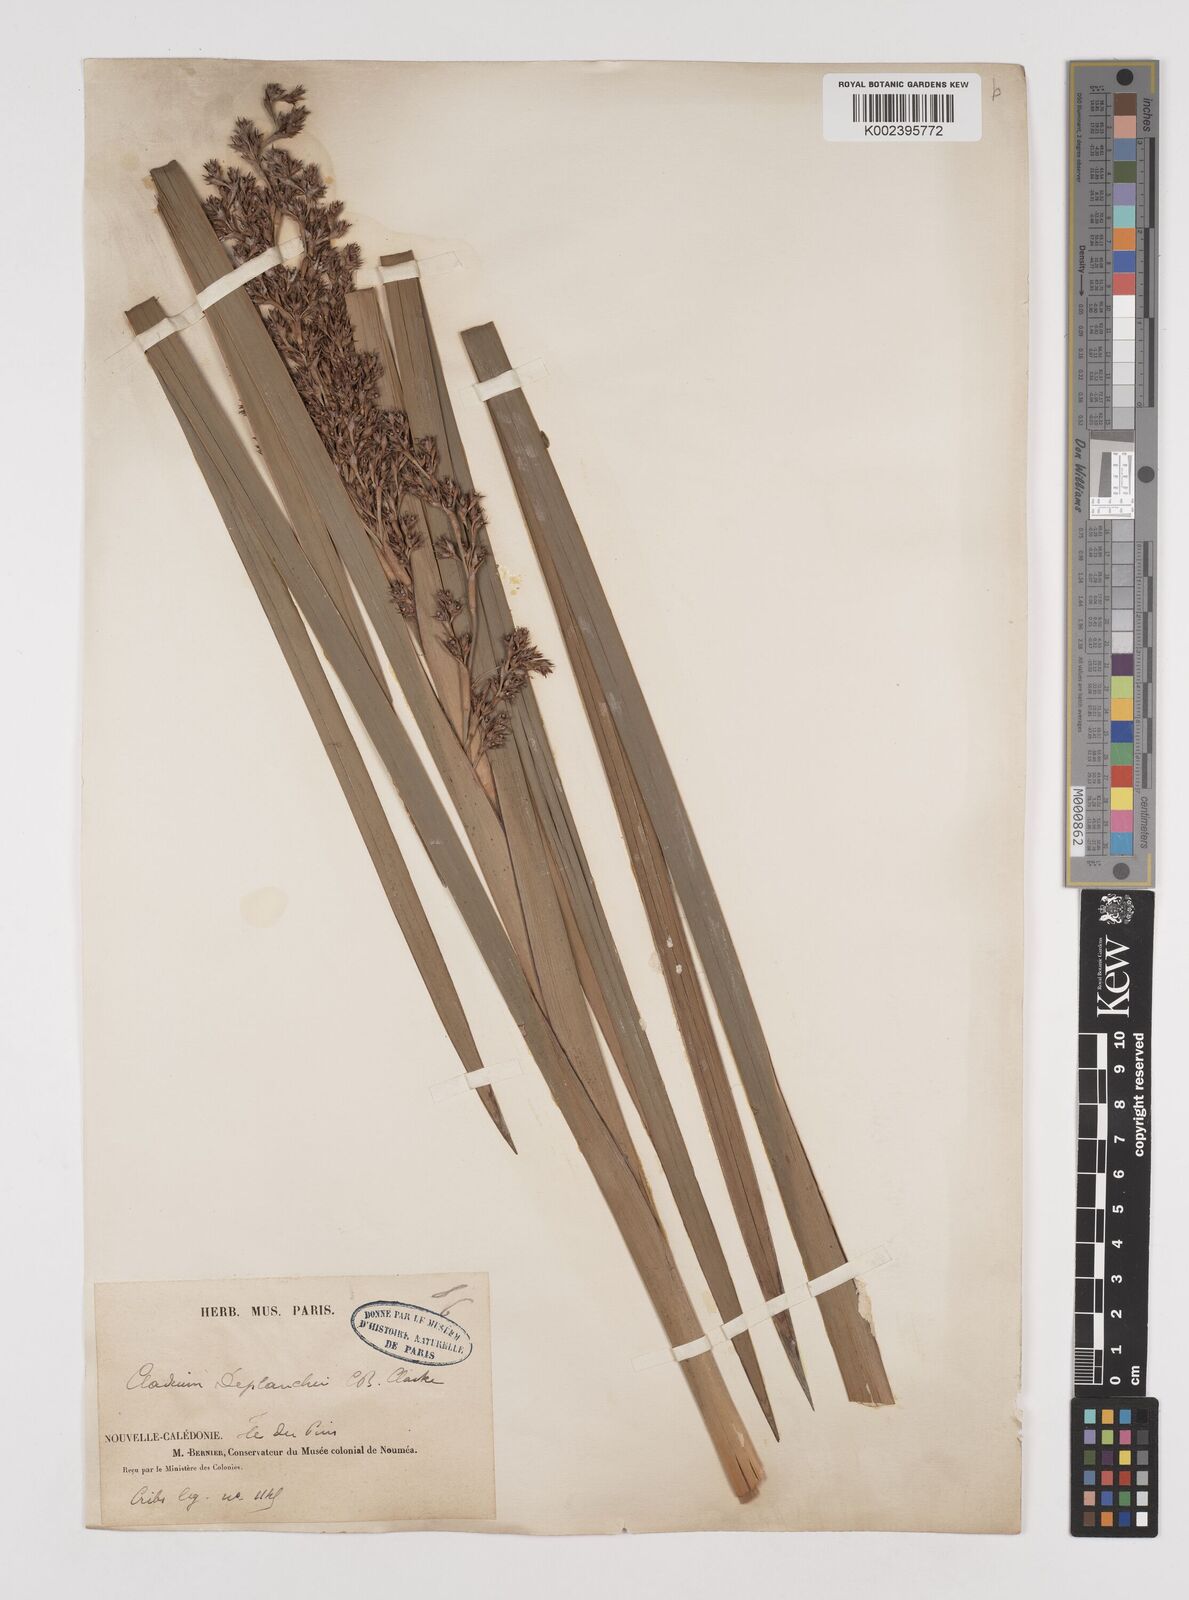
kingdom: Plantae
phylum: Tracheophyta
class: Liliopsida
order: Poales
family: Cyperaceae
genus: Machaerina
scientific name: Machaerina deplanchei
